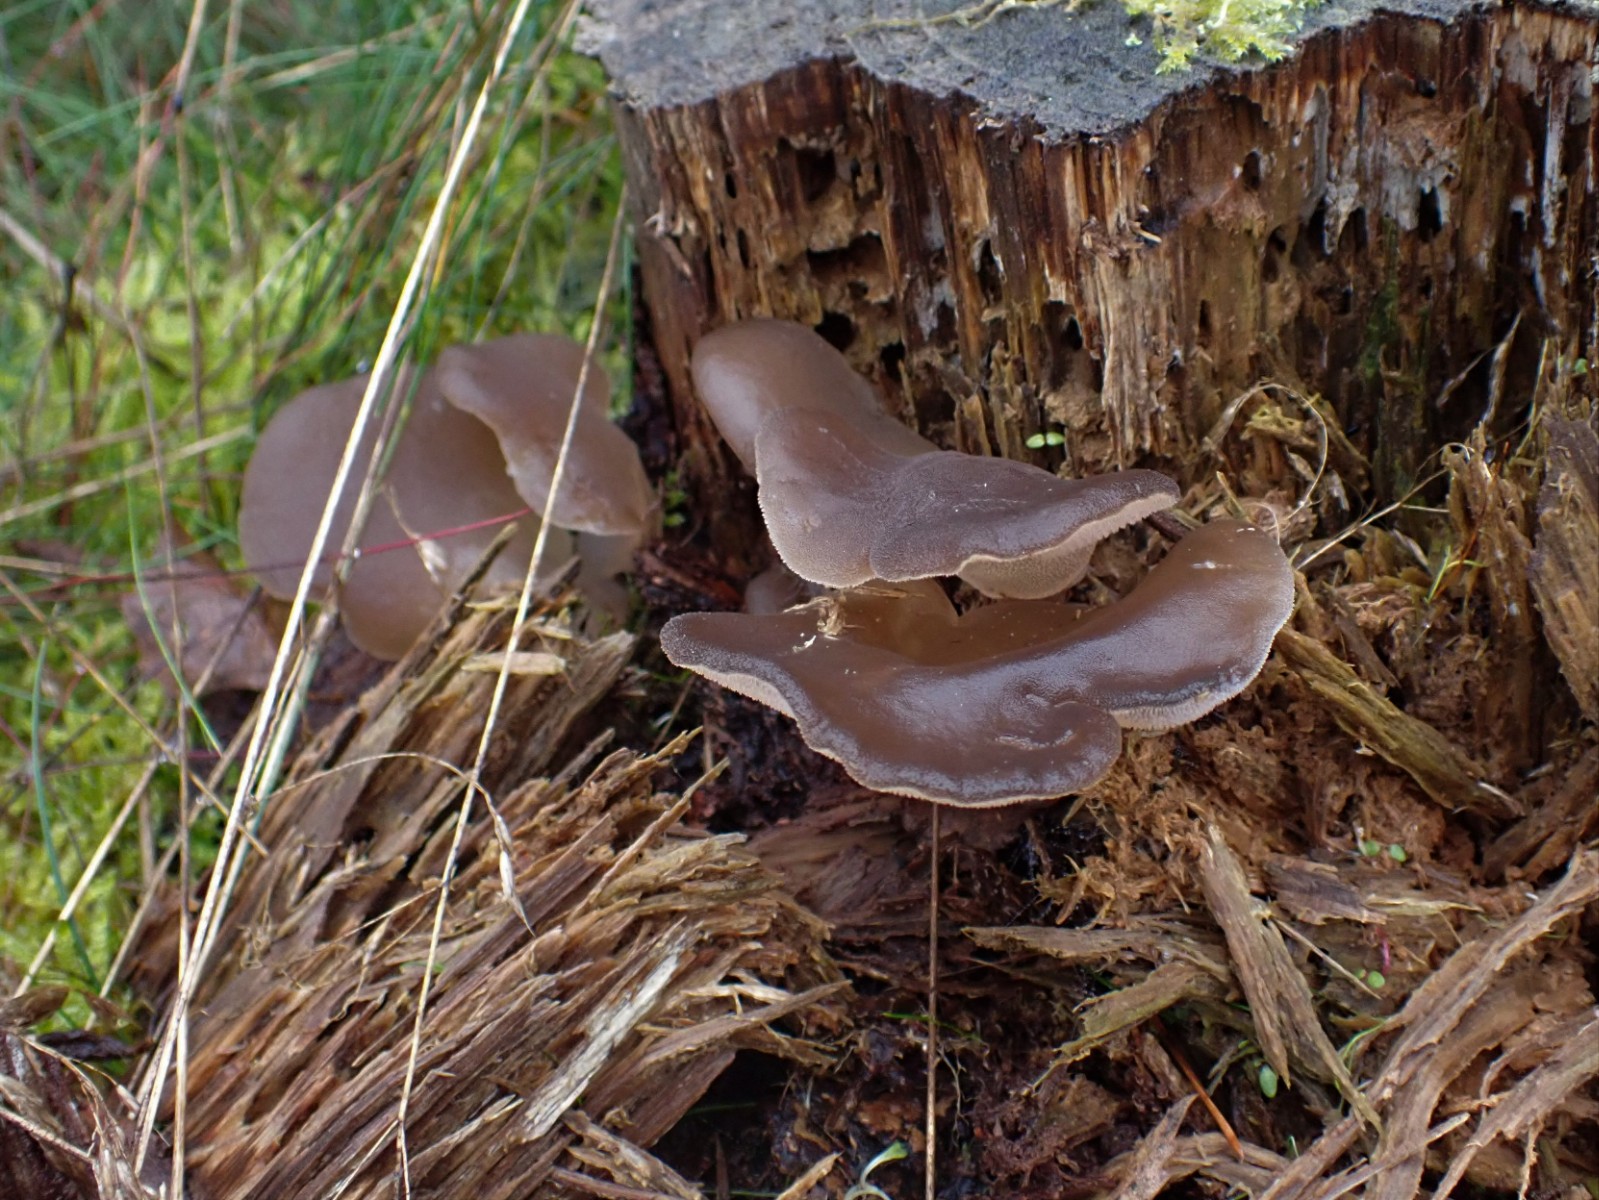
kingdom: Fungi
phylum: Basidiomycota
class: Agaricomycetes
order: Auriculariales
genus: Pseudohydnum
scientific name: Pseudohydnum gelatinosum
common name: bævretand
